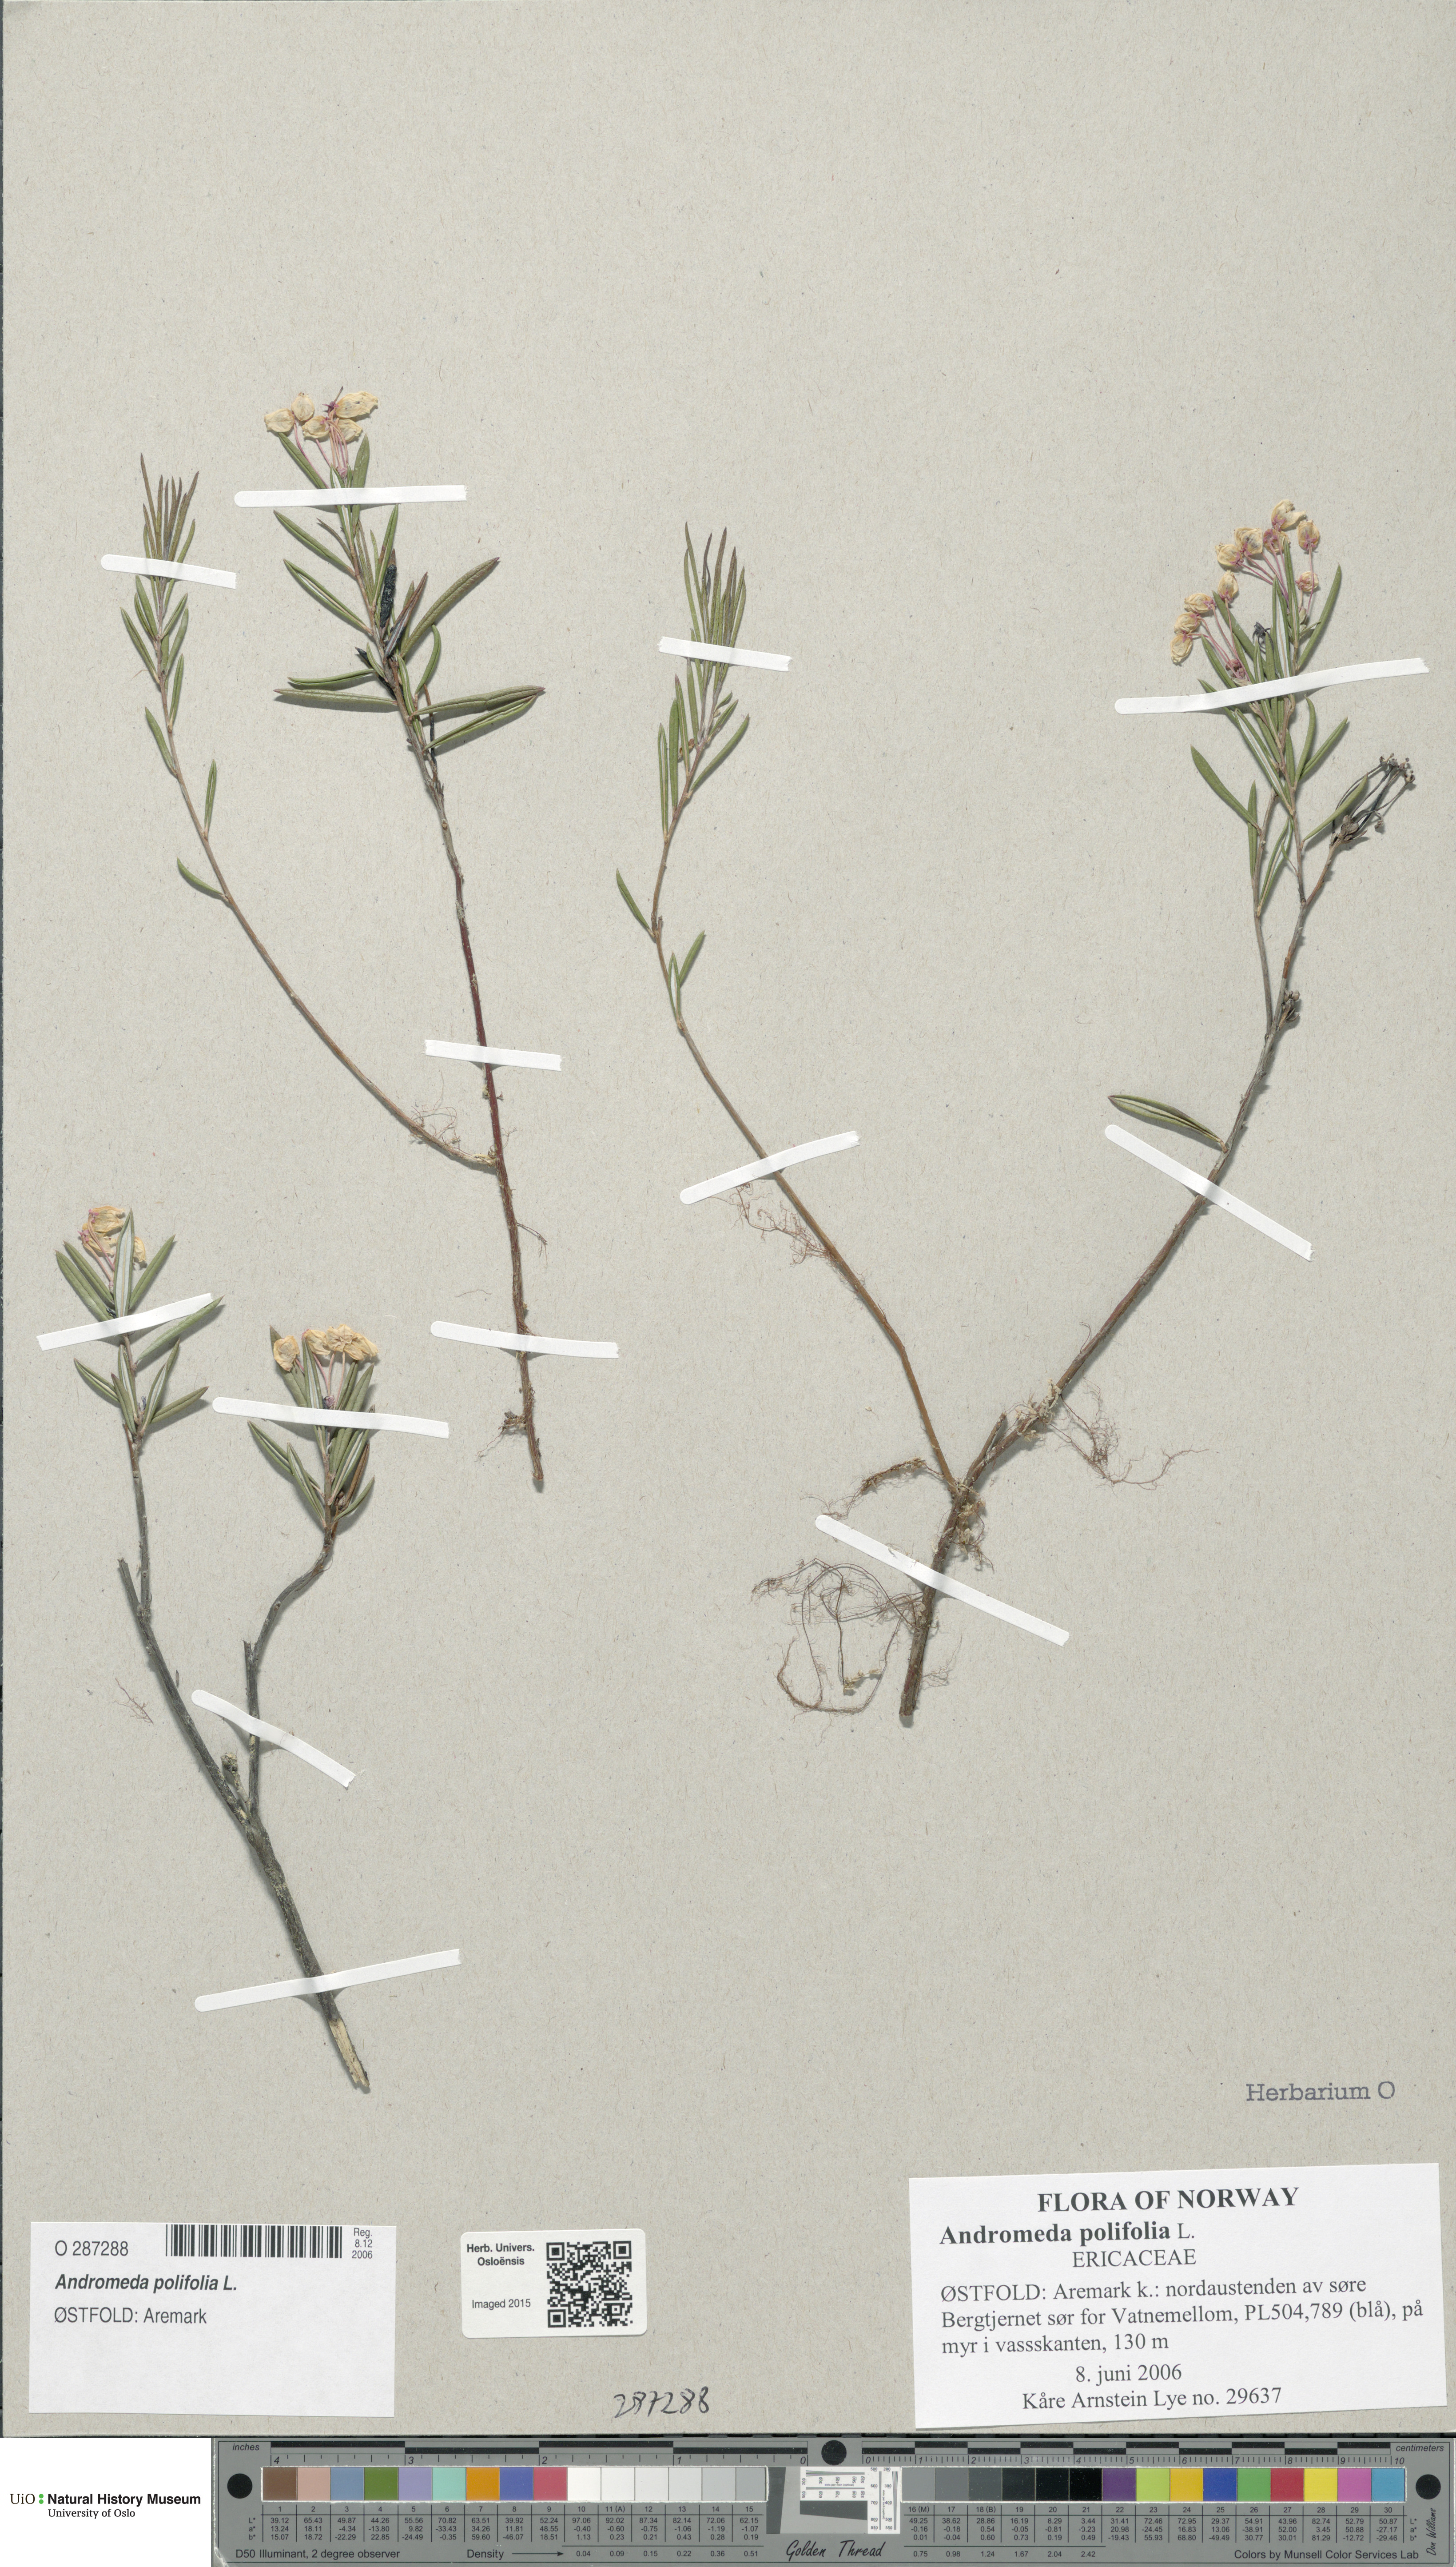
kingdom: Plantae
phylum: Tracheophyta
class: Magnoliopsida
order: Ericales
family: Ericaceae
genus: Andromeda
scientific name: Andromeda polifolia
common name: Bog-rosemary
